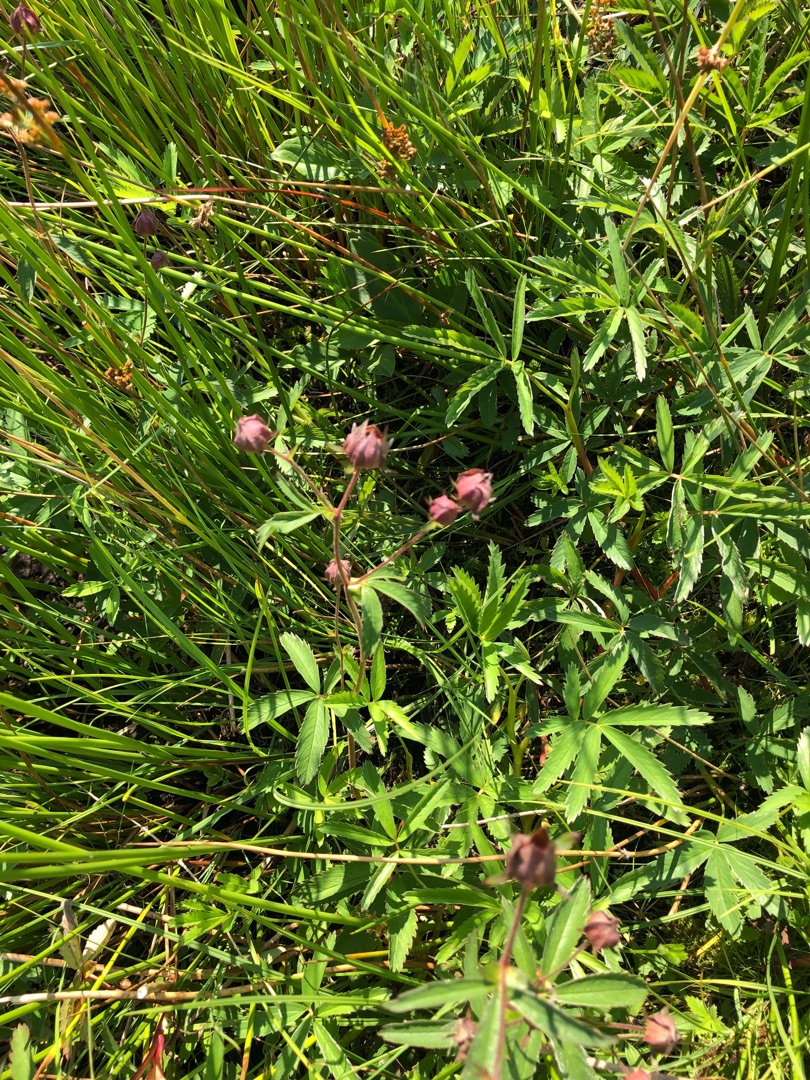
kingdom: Plantae
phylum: Tracheophyta
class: Magnoliopsida
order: Rosales
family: Rosaceae
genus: Comarum
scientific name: Comarum palustre
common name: Kragefod
